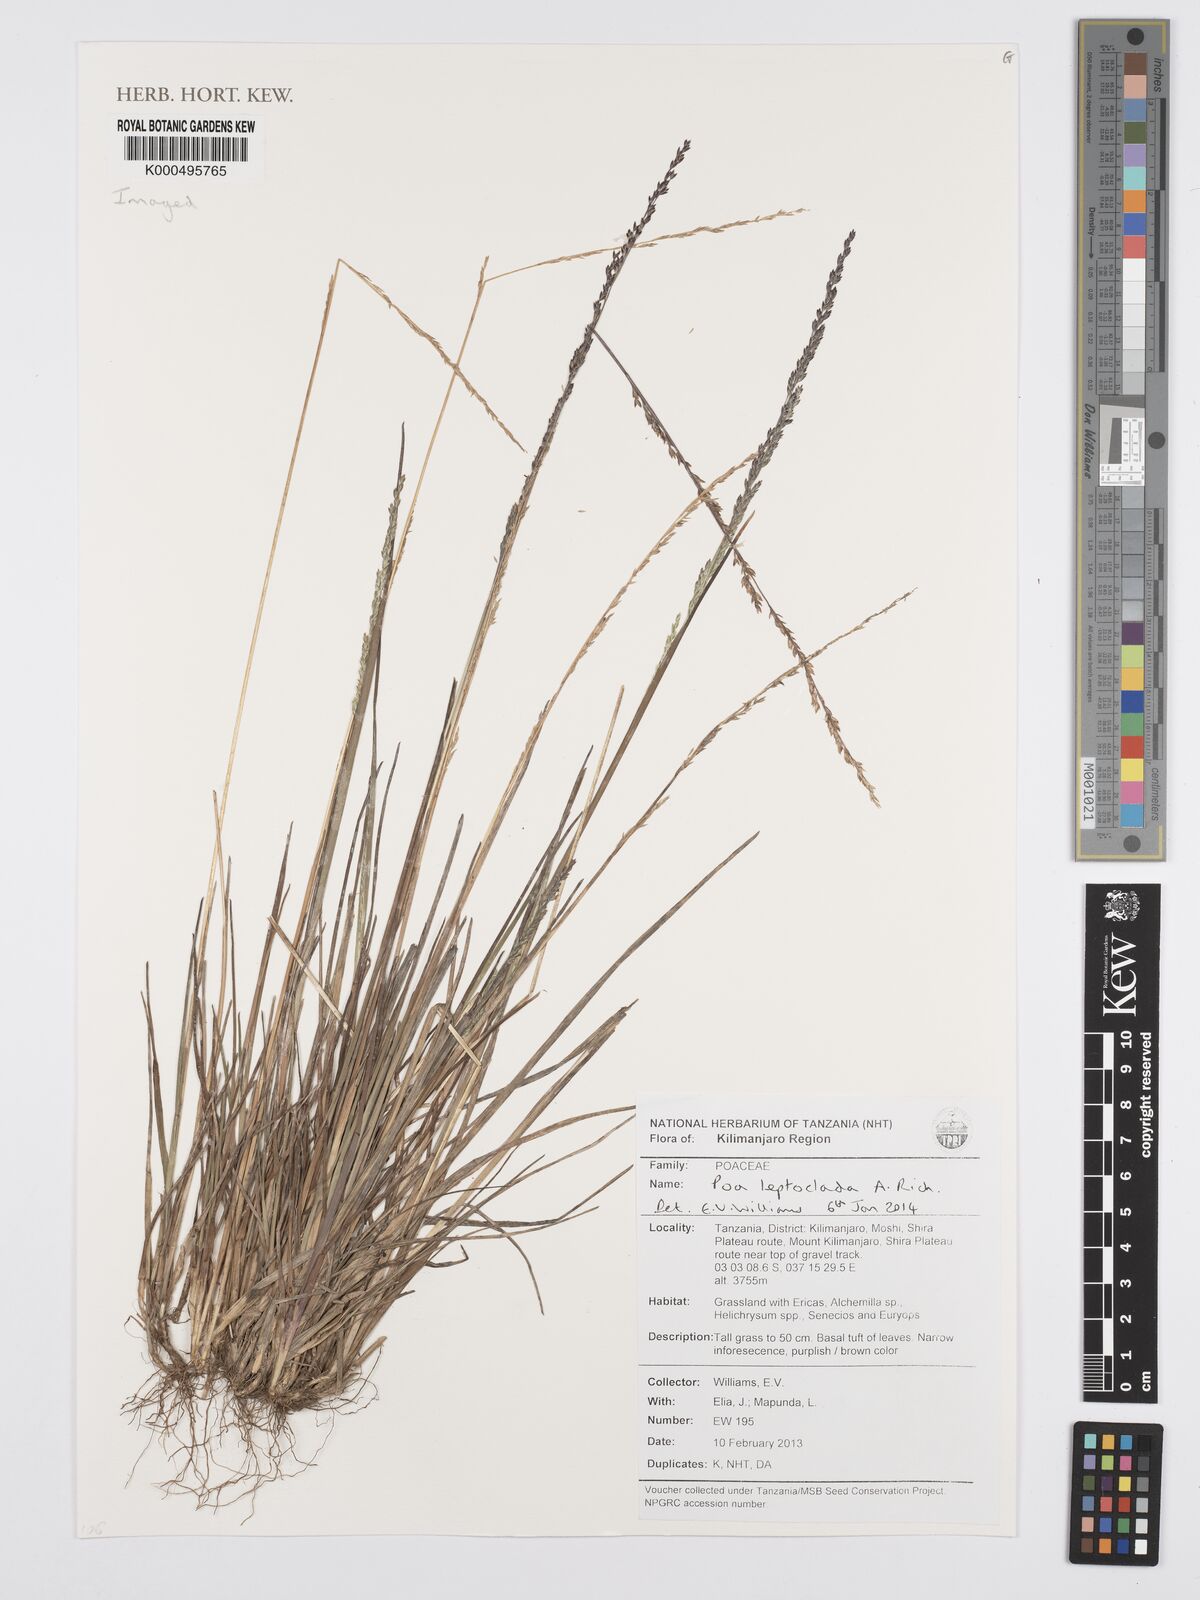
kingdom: Plantae
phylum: Tracheophyta
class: Liliopsida
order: Poales
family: Poaceae
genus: Poa
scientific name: Poa leptoclada
